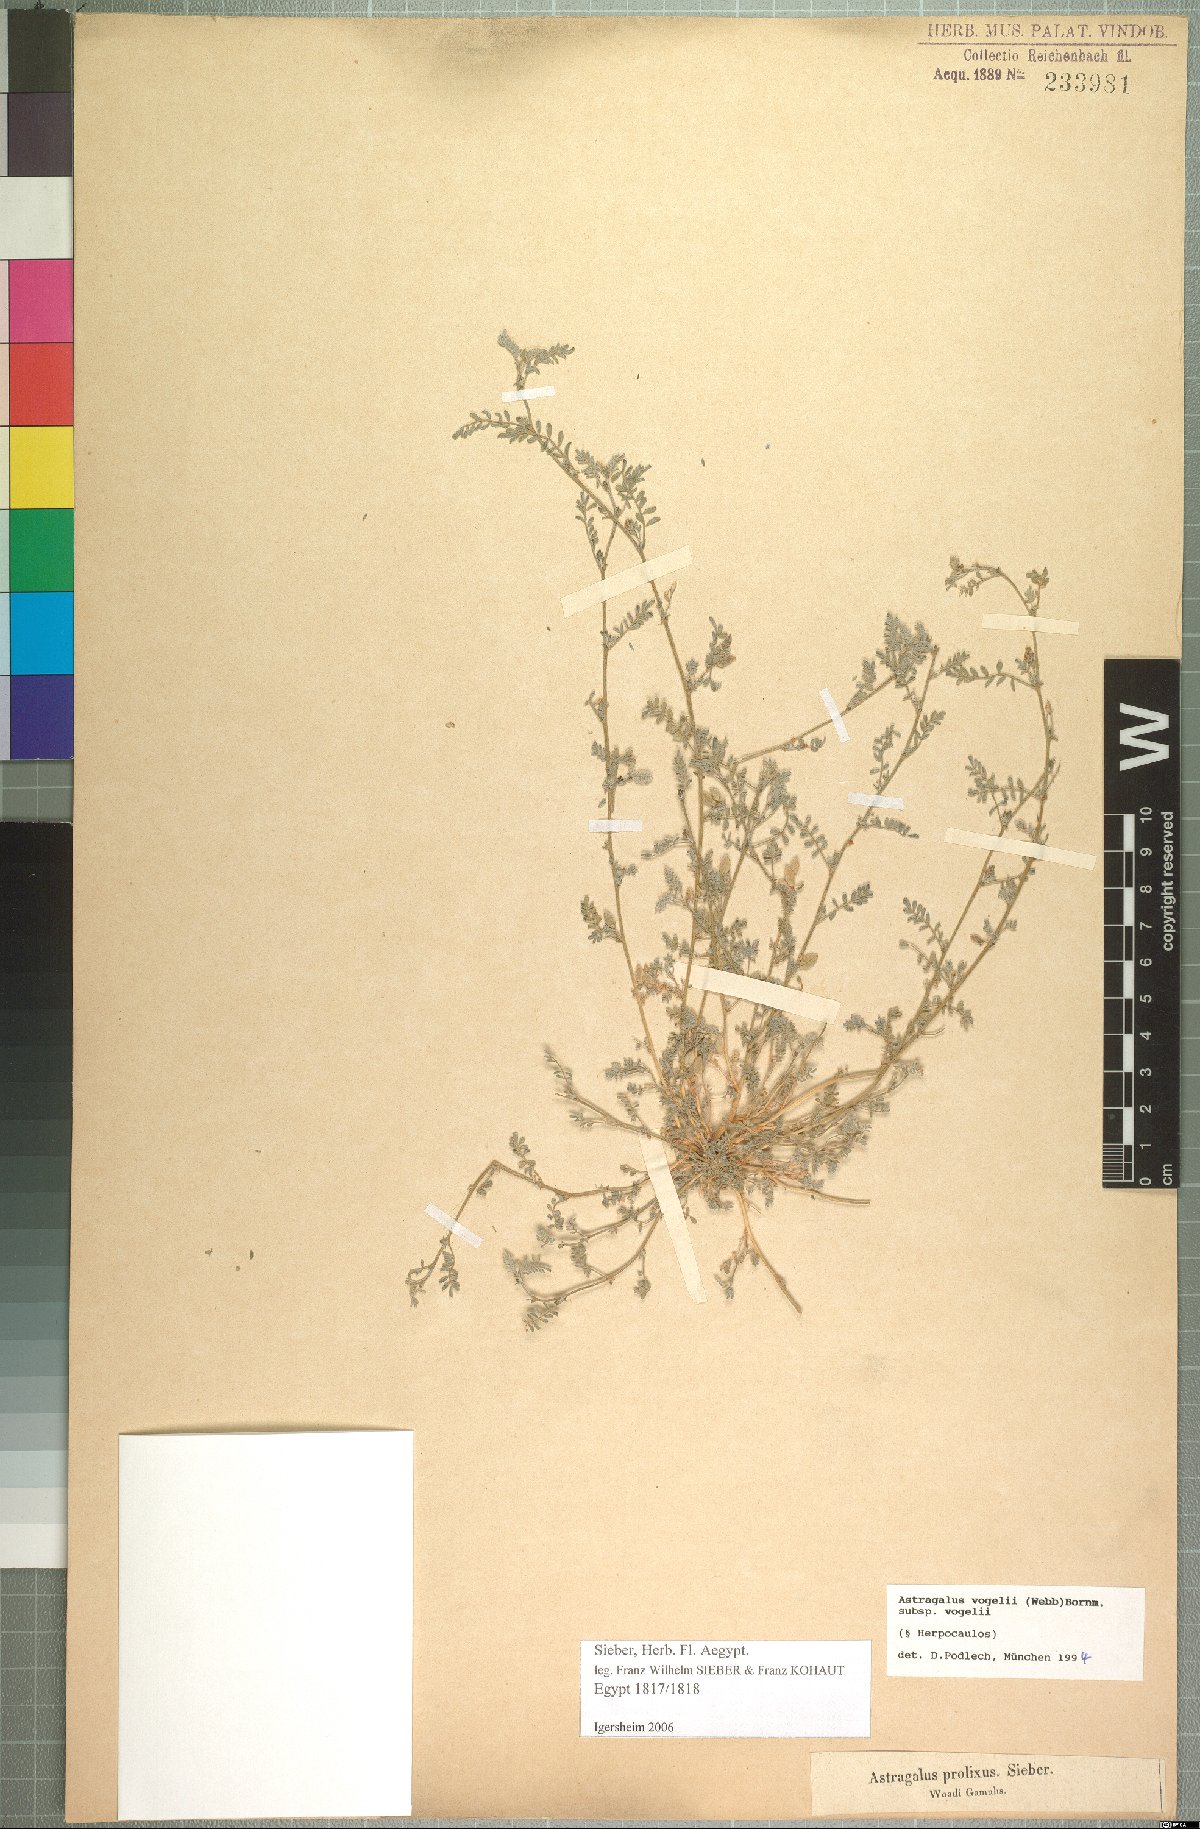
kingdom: Plantae
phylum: Tracheophyta
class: Magnoliopsida
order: Fabales
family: Fabaceae
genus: Astragalus
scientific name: Astragalus vogelii
